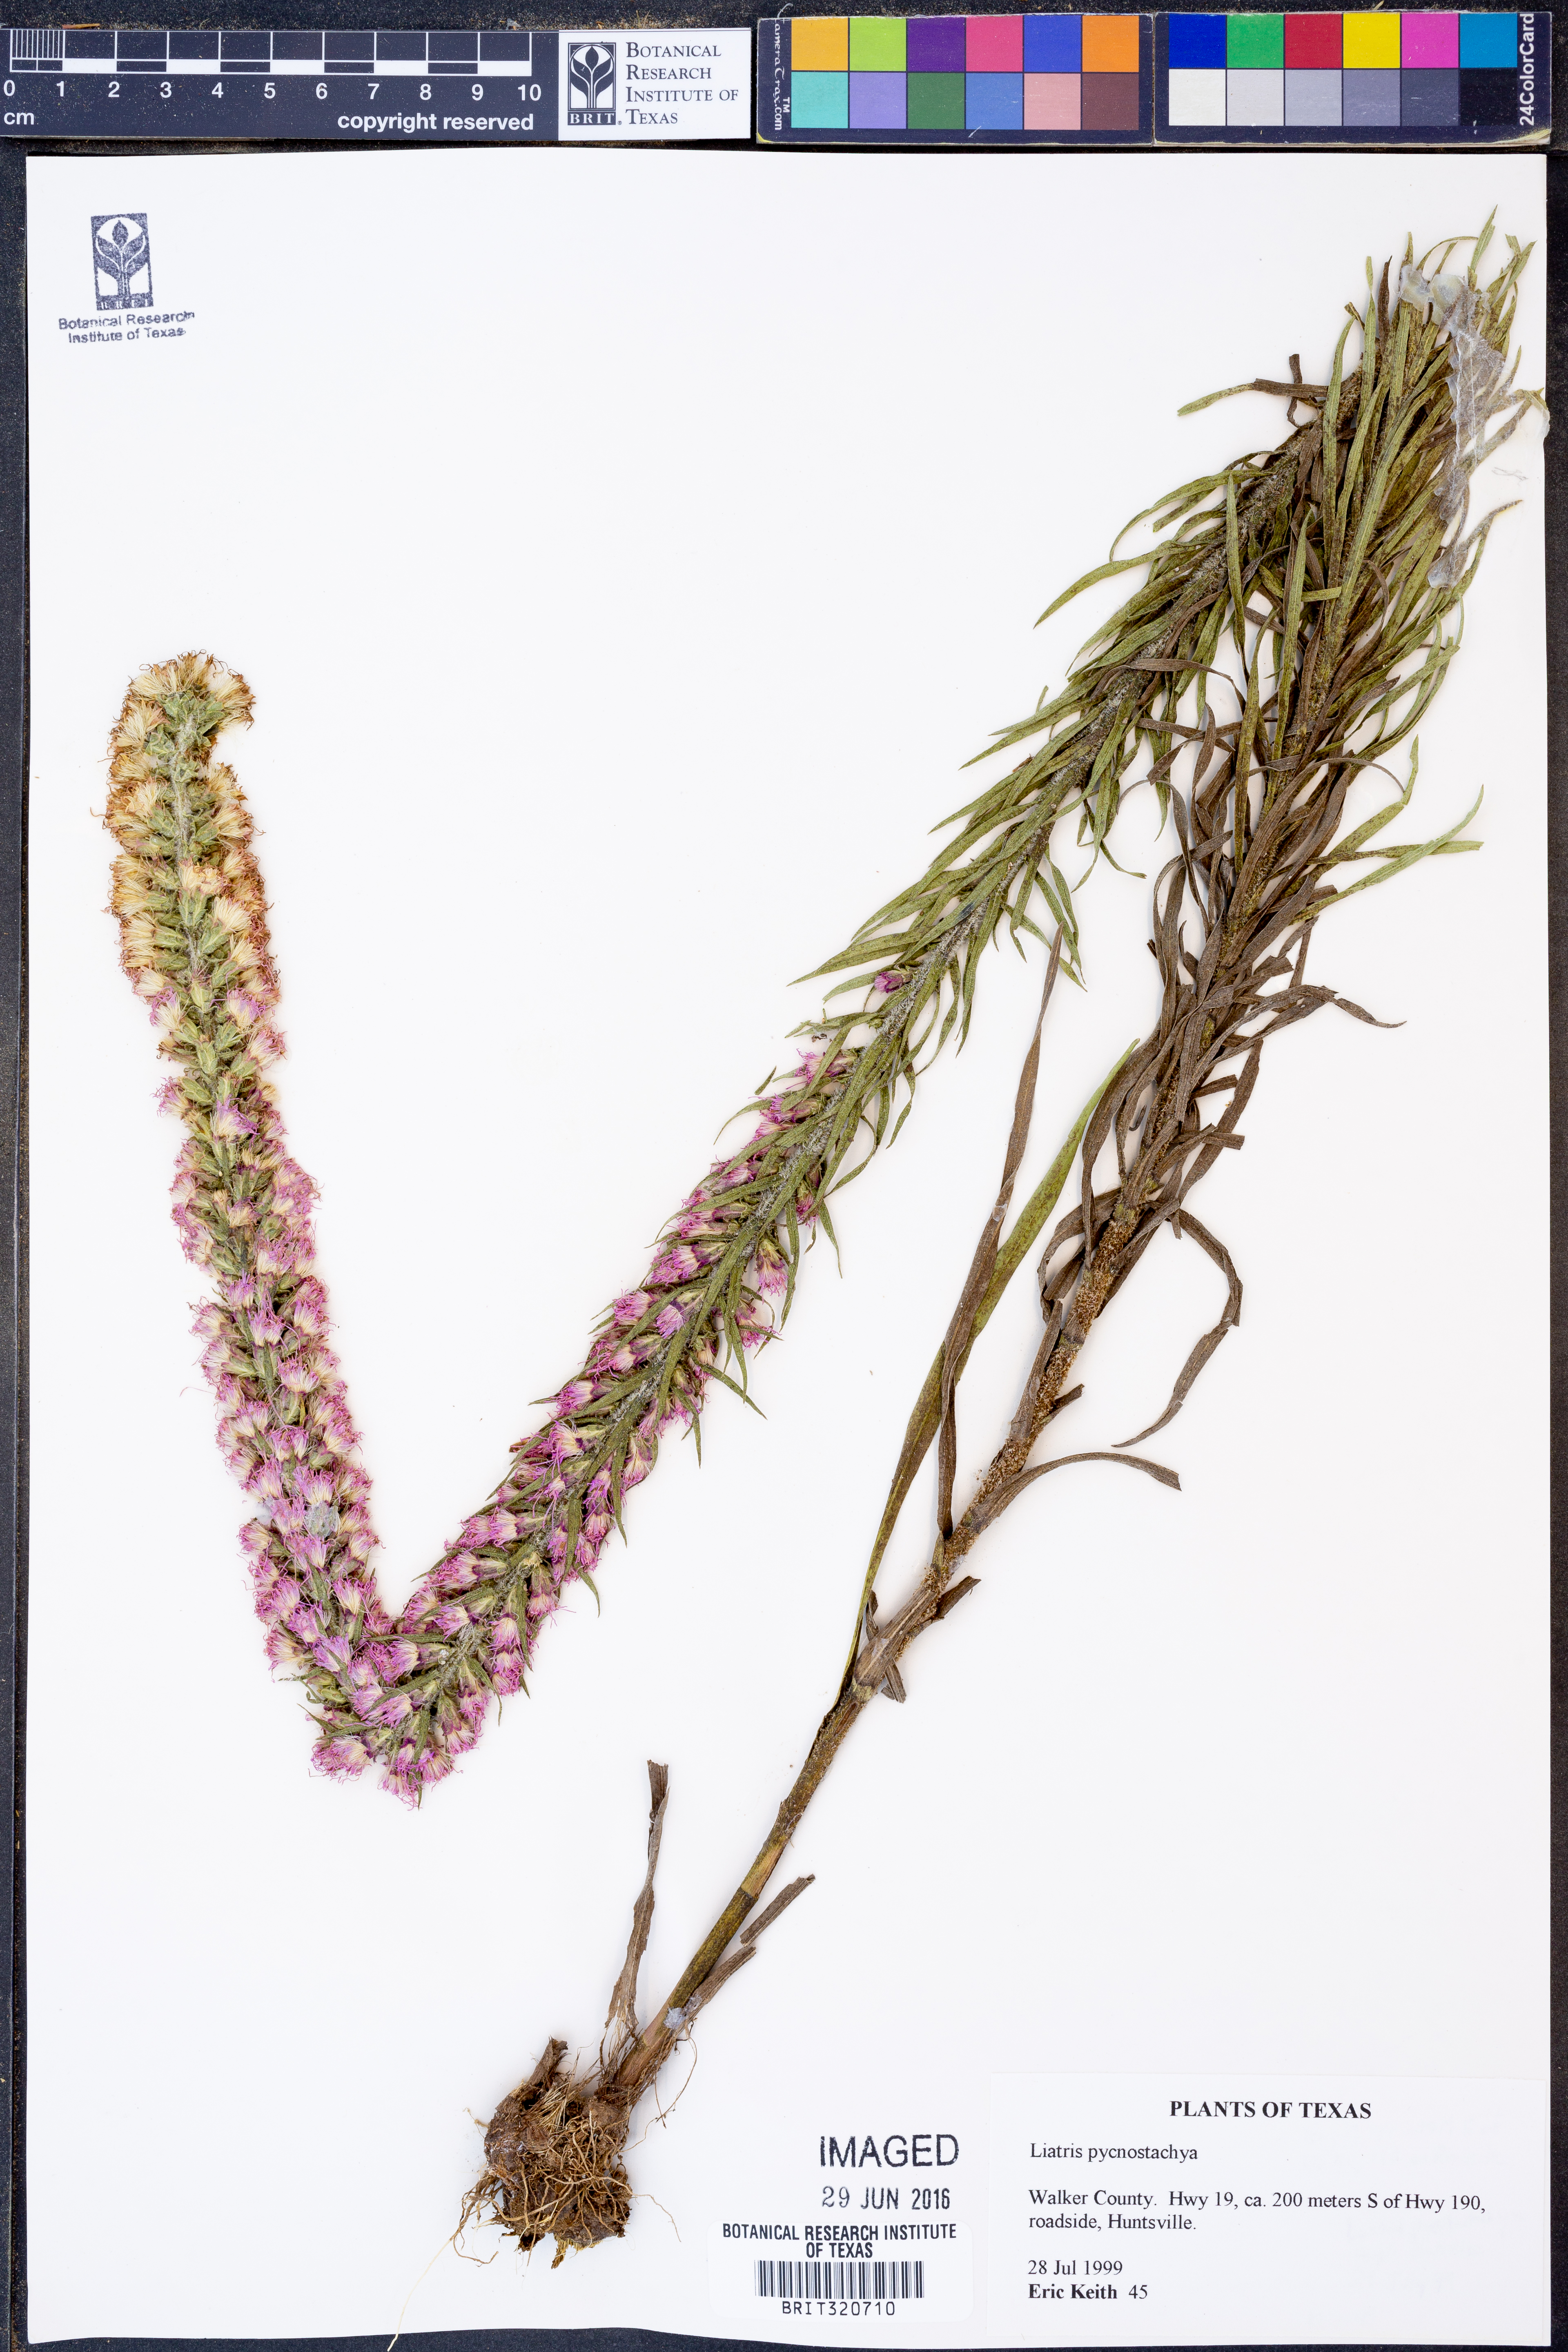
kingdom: Plantae
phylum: Tracheophyta
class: Magnoliopsida
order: Asterales
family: Asteraceae
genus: Liatris
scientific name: Liatris pycnostachya
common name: Cattail gayfeather
